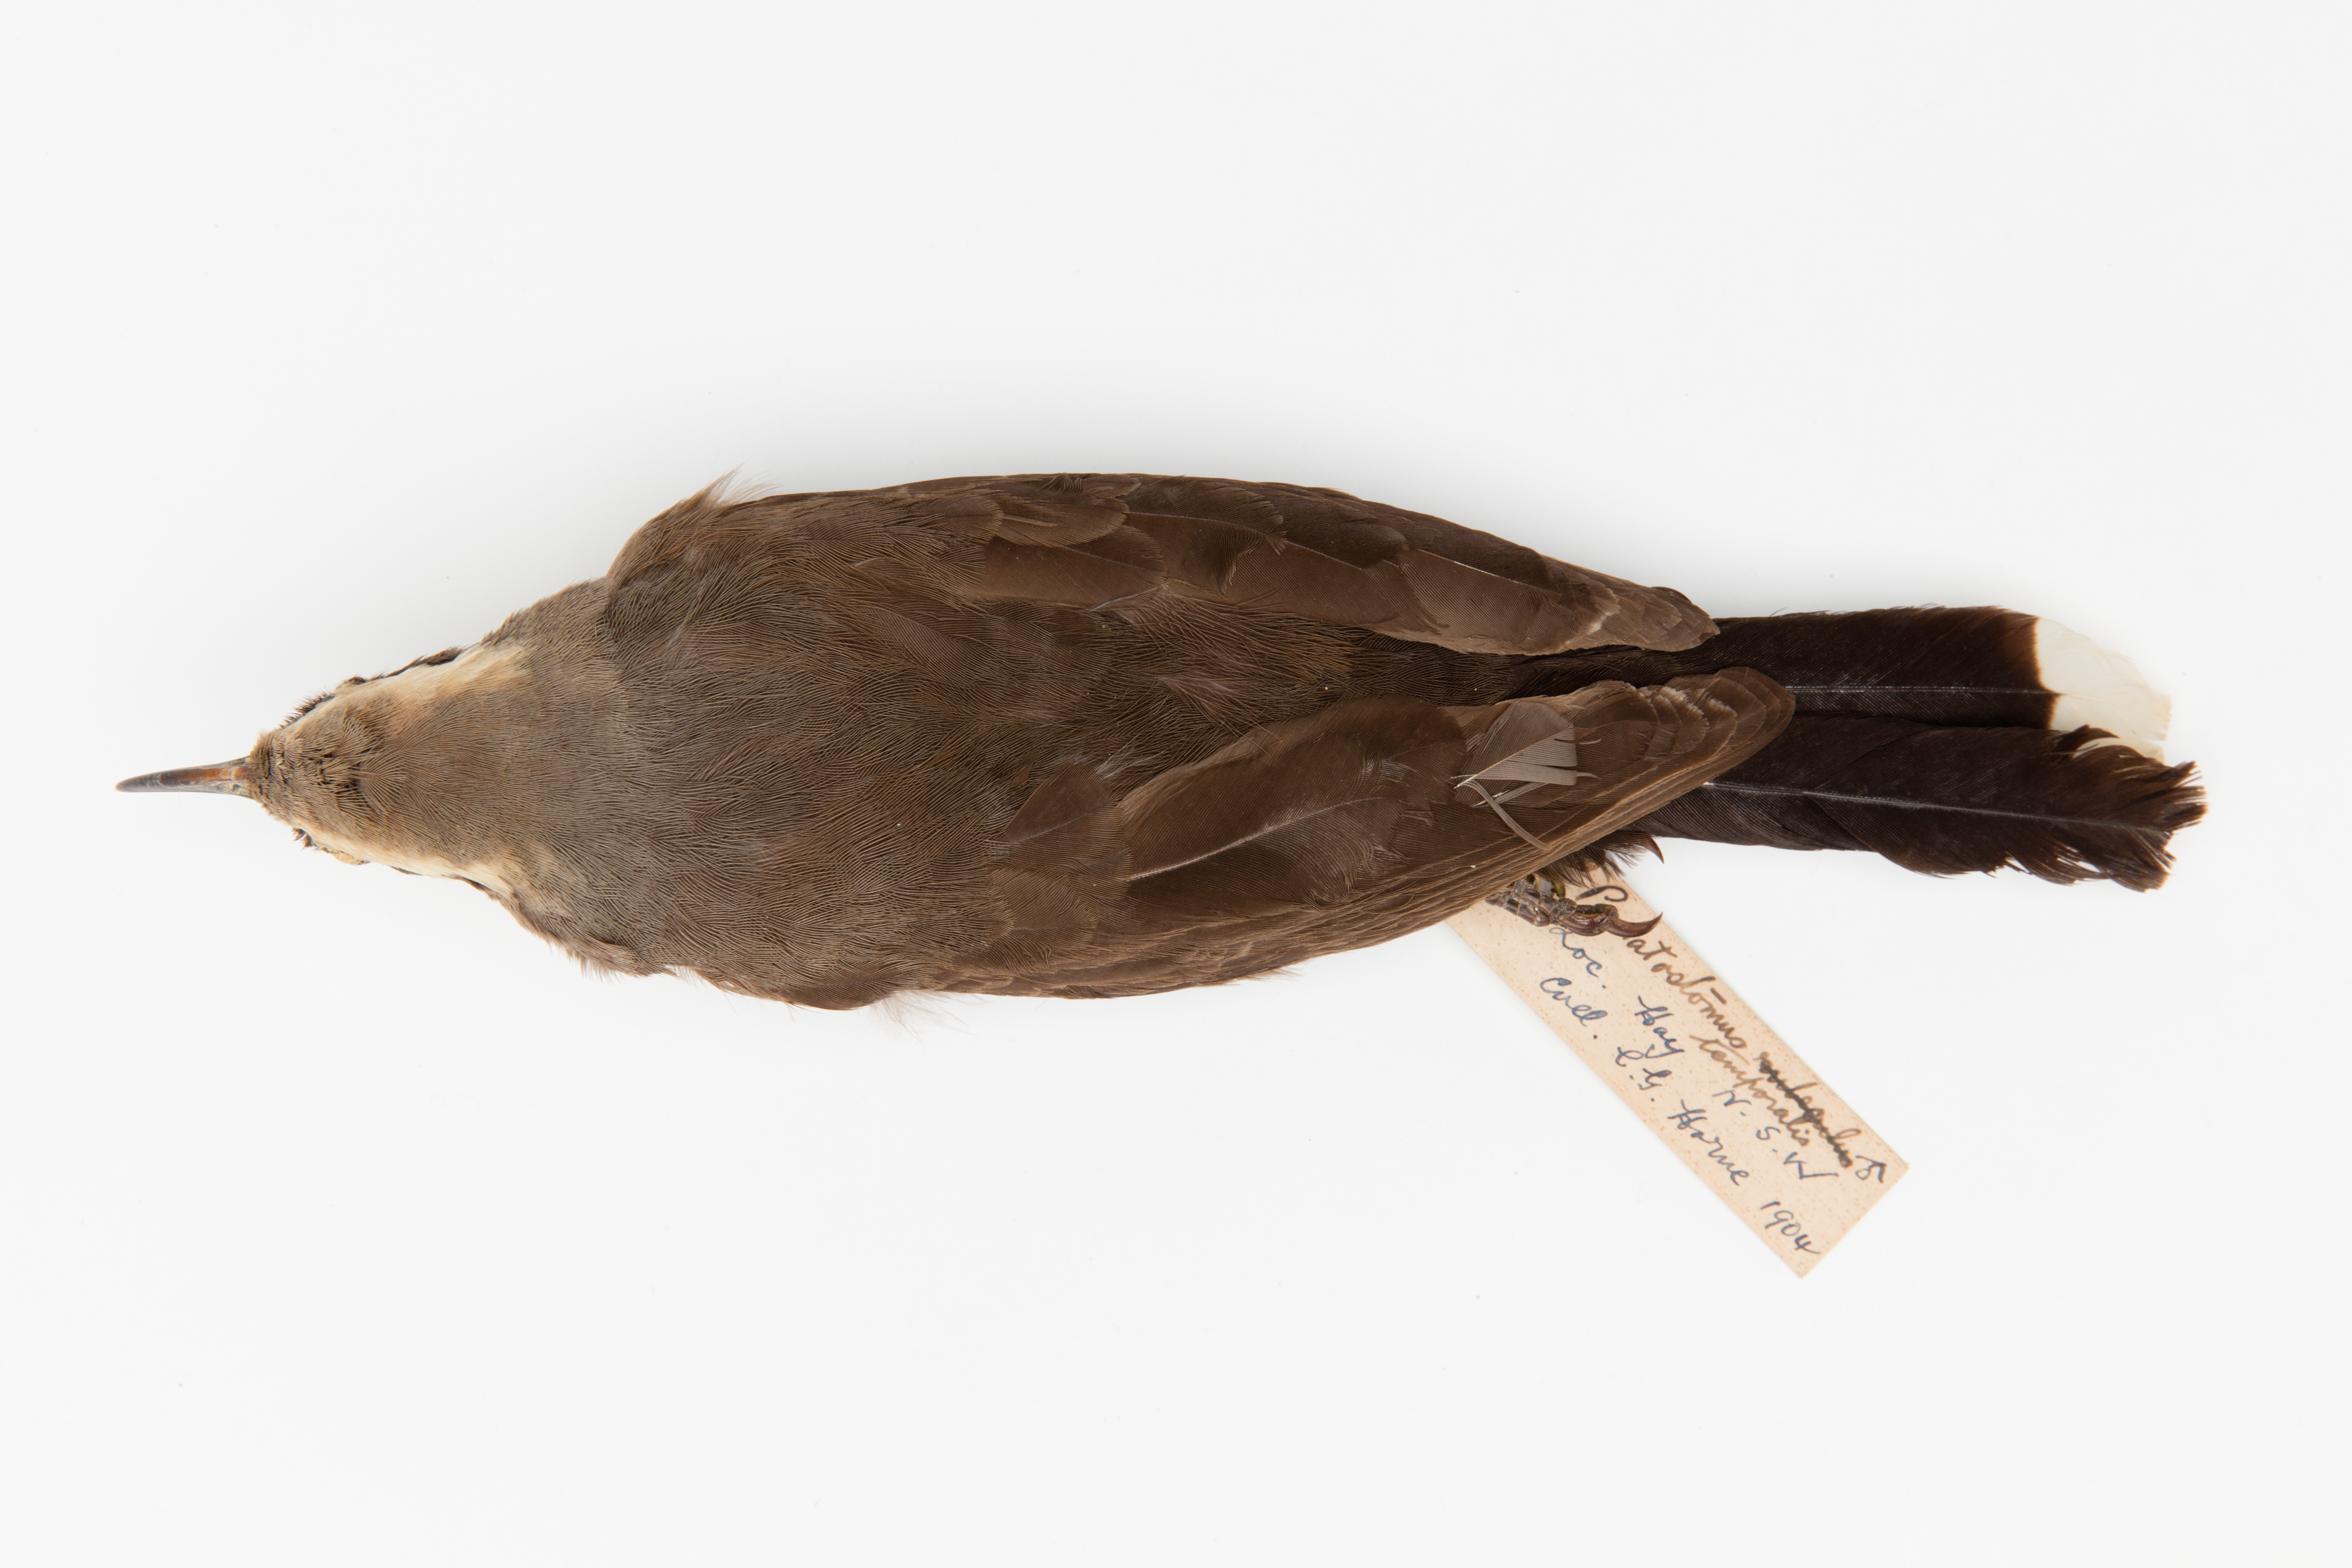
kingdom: Animalia
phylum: Chordata
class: Aves
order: Passeriformes
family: Pomatostomidae
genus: Pomatostomus
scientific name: Pomatostomus temporalis
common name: Grey-crowned babbler
